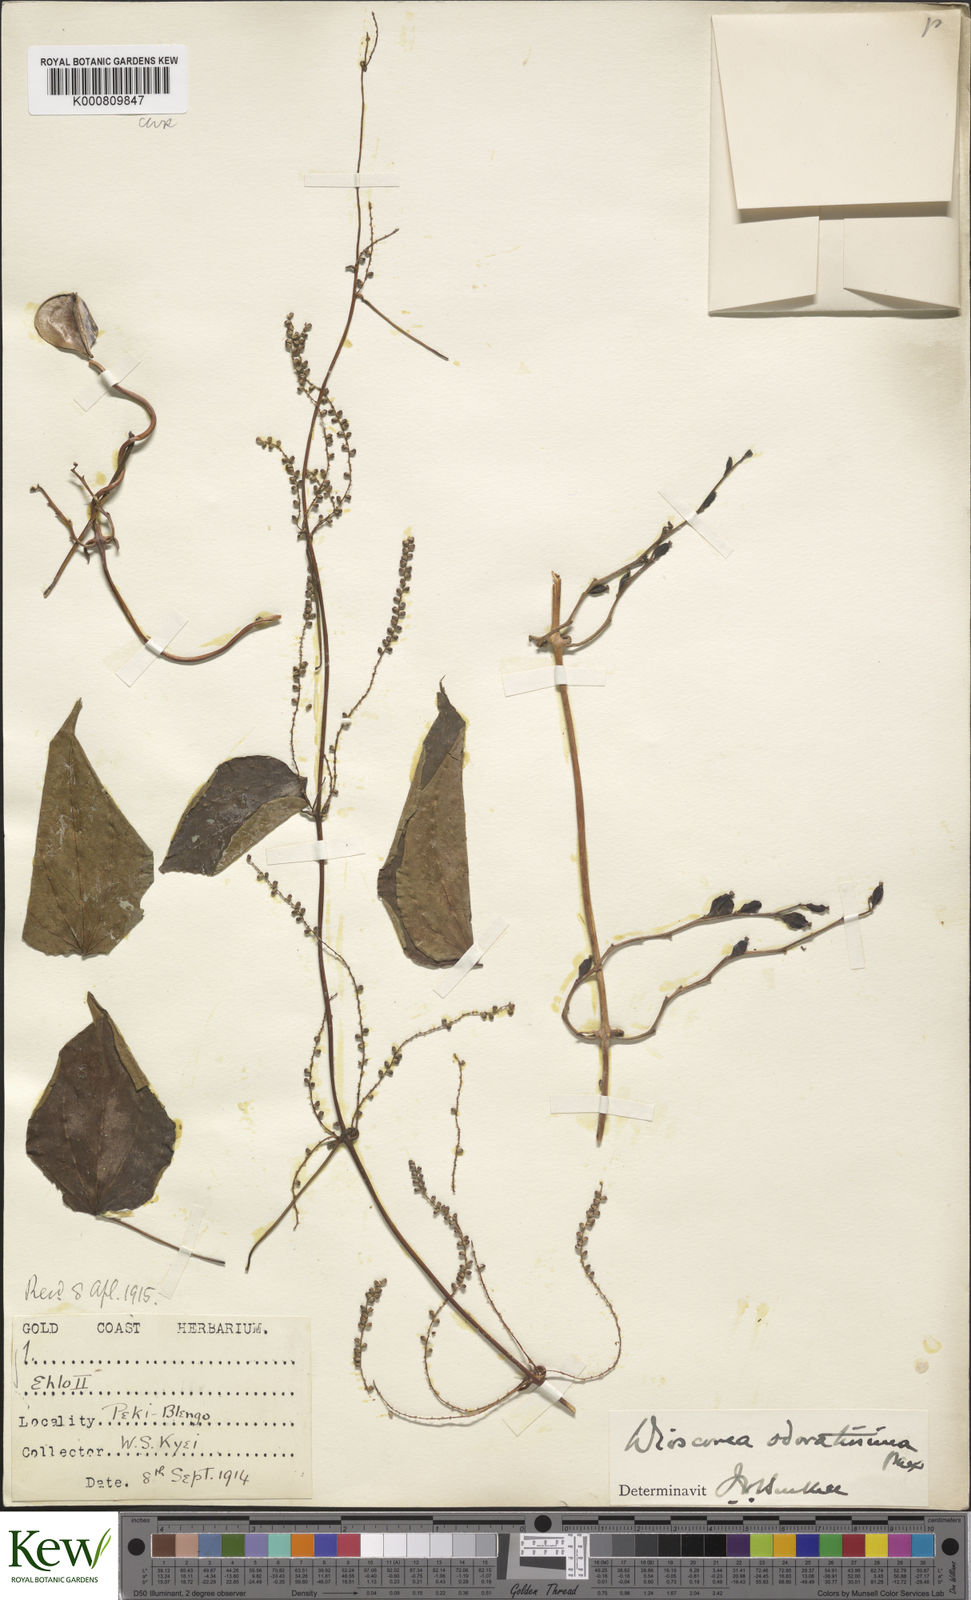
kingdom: Plantae
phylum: Tracheophyta
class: Liliopsida
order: Dioscoreales
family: Dioscoreaceae
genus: Dioscorea
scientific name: Dioscorea praehensilis
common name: Bush yam
